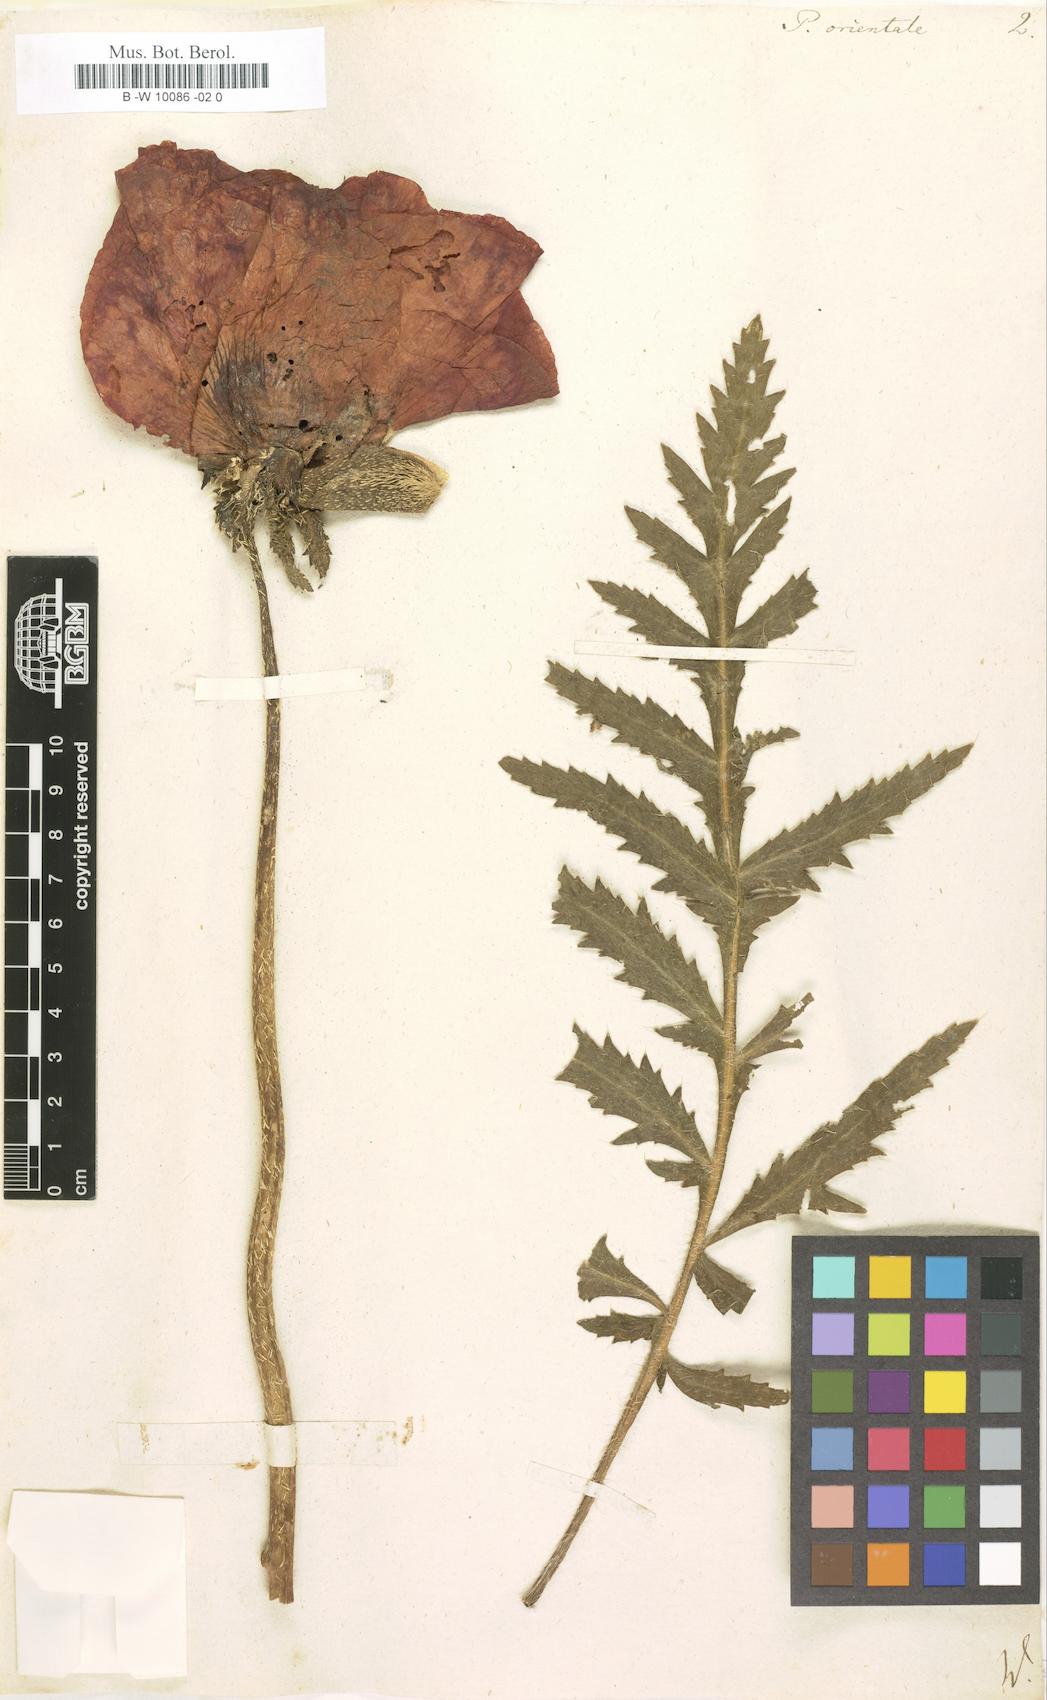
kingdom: Plantae
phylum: Tracheophyta
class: Magnoliopsida
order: Ranunculales
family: Papaveraceae
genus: Papaver
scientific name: Papaver orientale
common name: Oriental poppy
